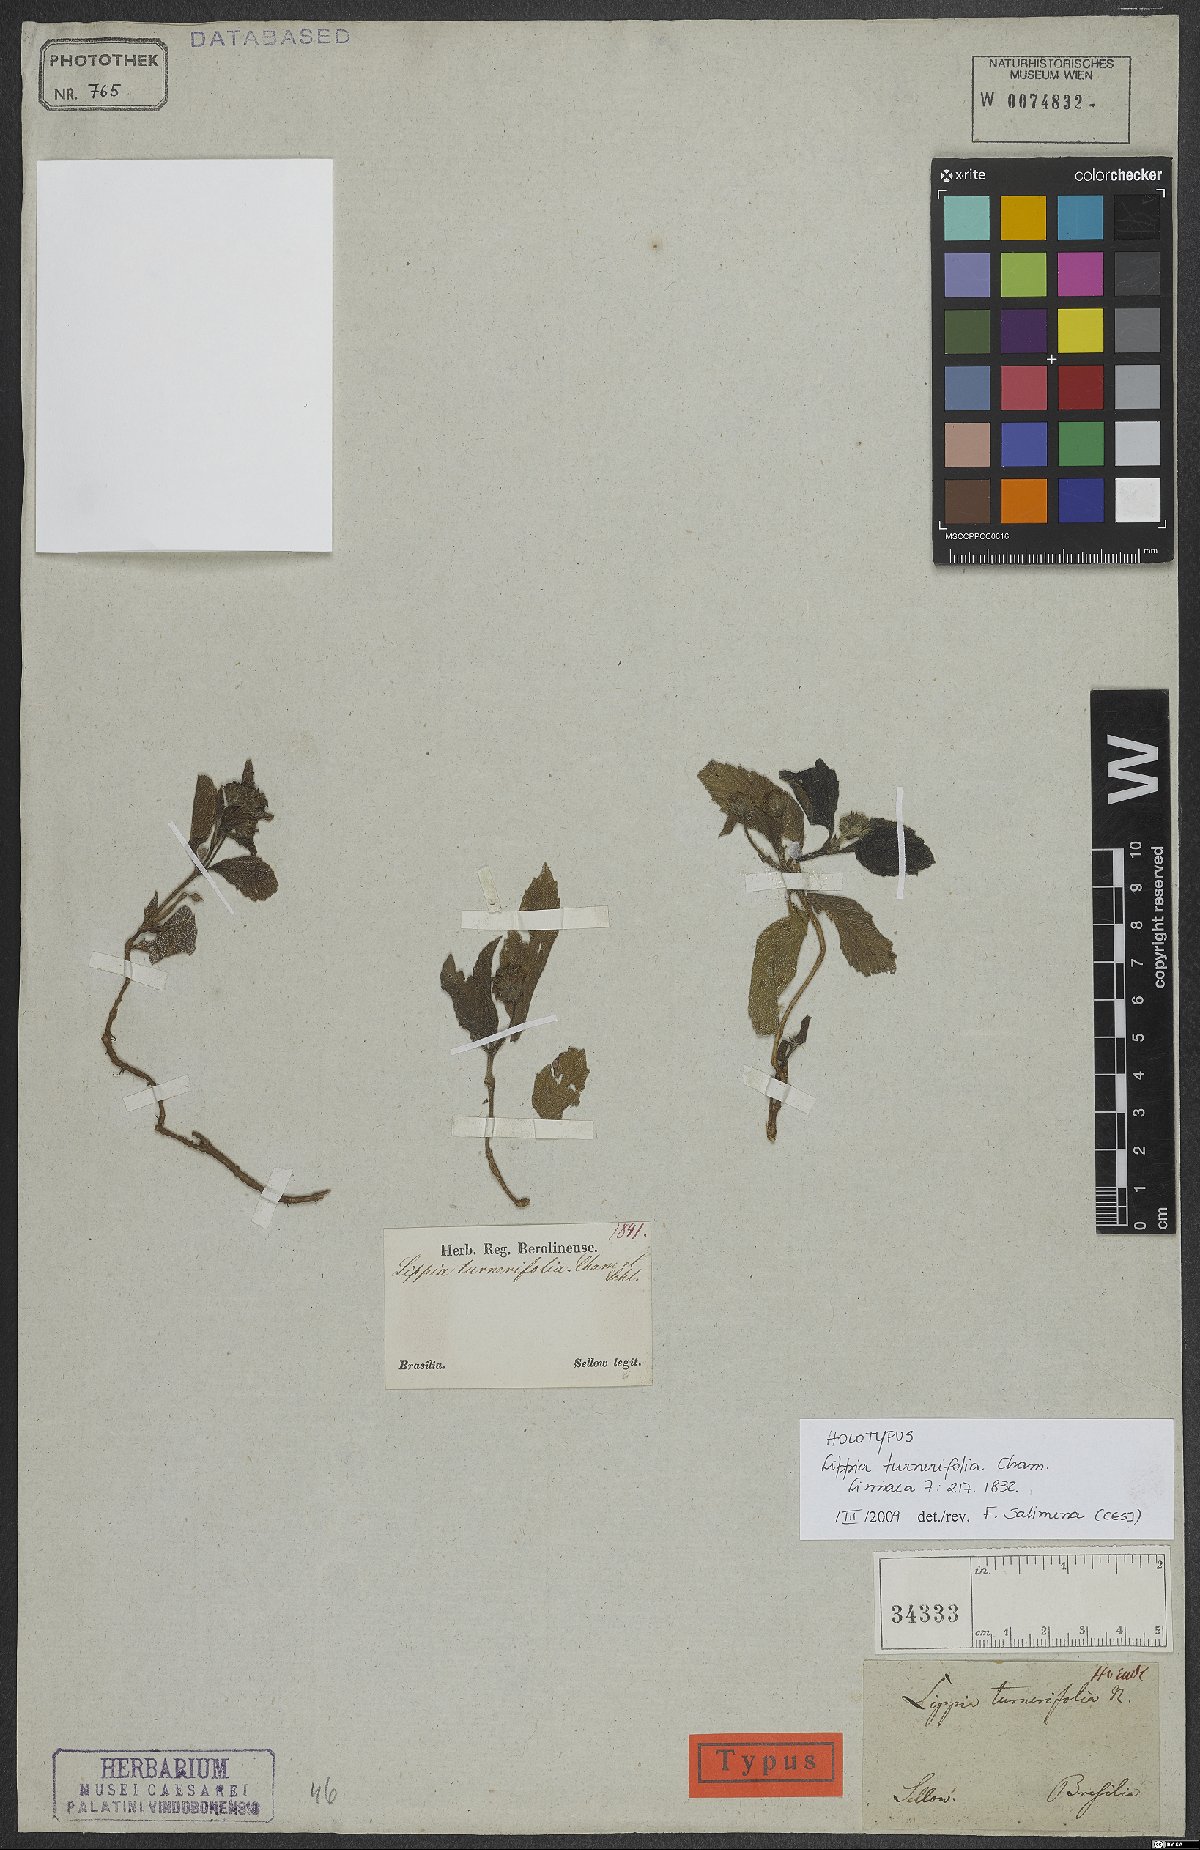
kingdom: Plantae
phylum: Tracheophyta
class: Magnoliopsida
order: Lamiales
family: Verbenaceae
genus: Lippia
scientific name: Lippia turnerifolia
